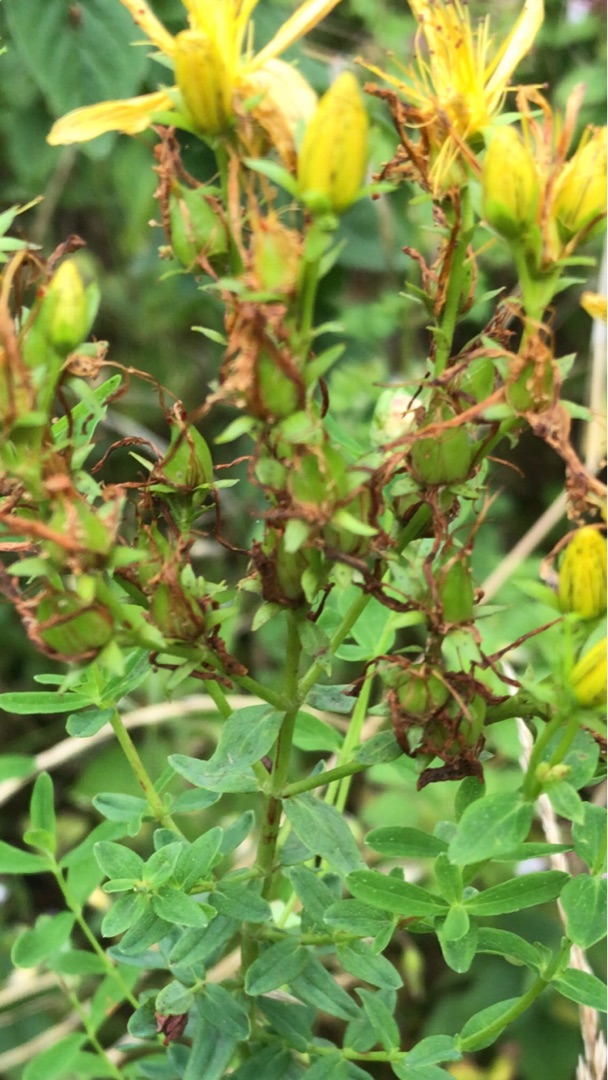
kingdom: Plantae
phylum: Tracheophyta
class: Magnoliopsida
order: Malpighiales
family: Hypericaceae
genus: Hypericum
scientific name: Hypericum perforatum
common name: Prikbladet perikon
